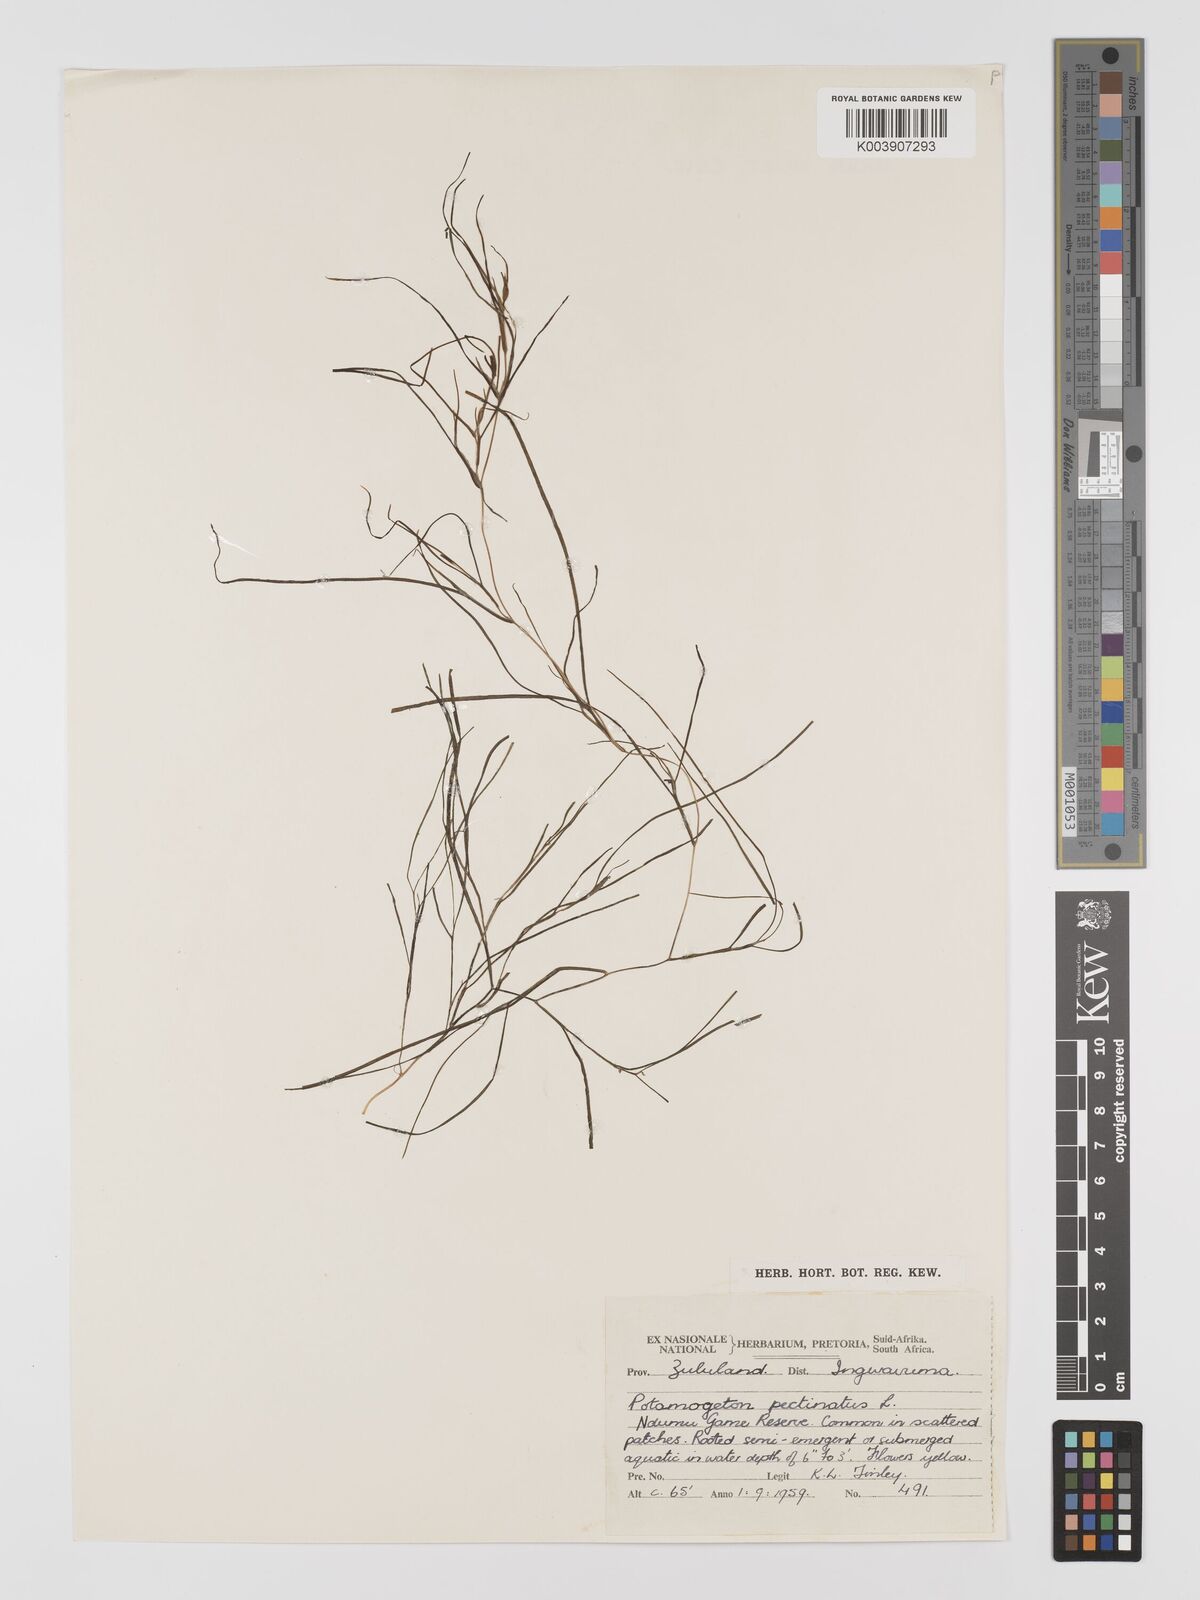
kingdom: Plantae
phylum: Tracheophyta
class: Liliopsida
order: Alismatales
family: Potamogetonaceae
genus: Stuckenia
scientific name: Stuckenia pectinata
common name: Sago pondweed
